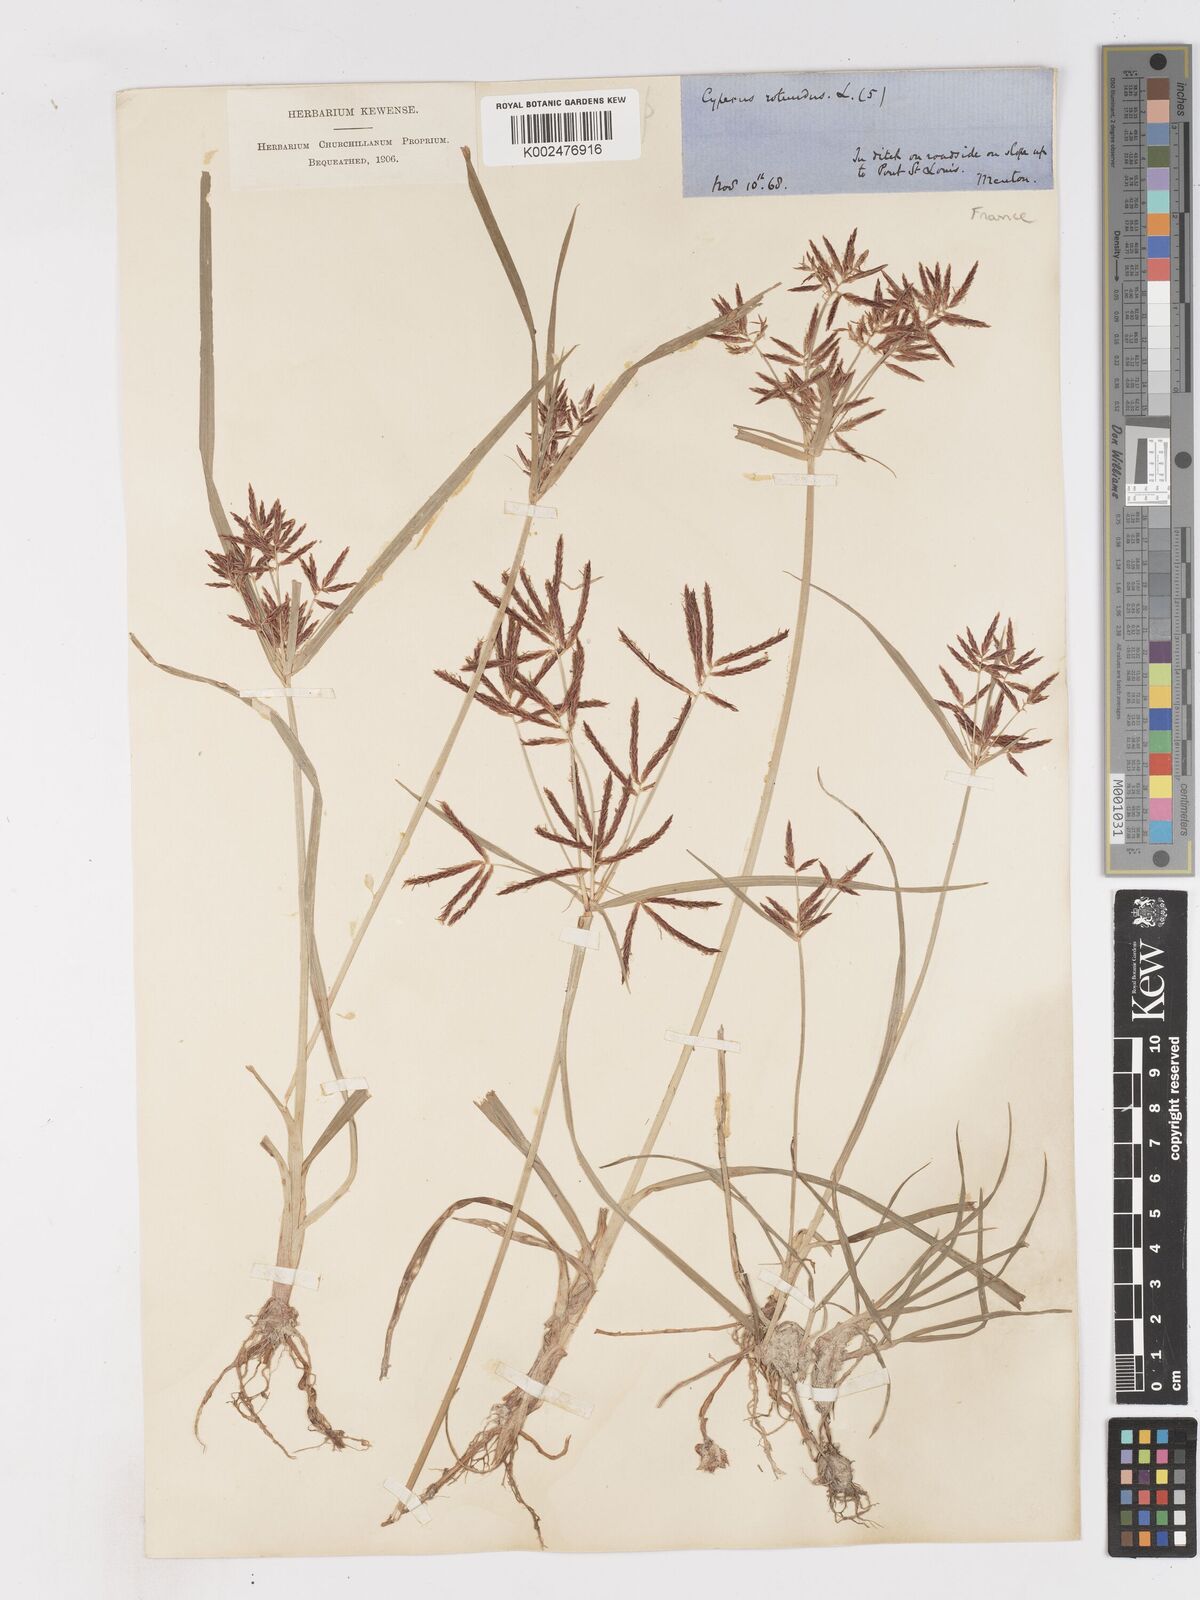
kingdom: Plantae
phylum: Tracheophyta
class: Liliopsida
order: Poales
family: Cyperaceae
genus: Cyperus
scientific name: Cyperus rotundus
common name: Nutgrass
